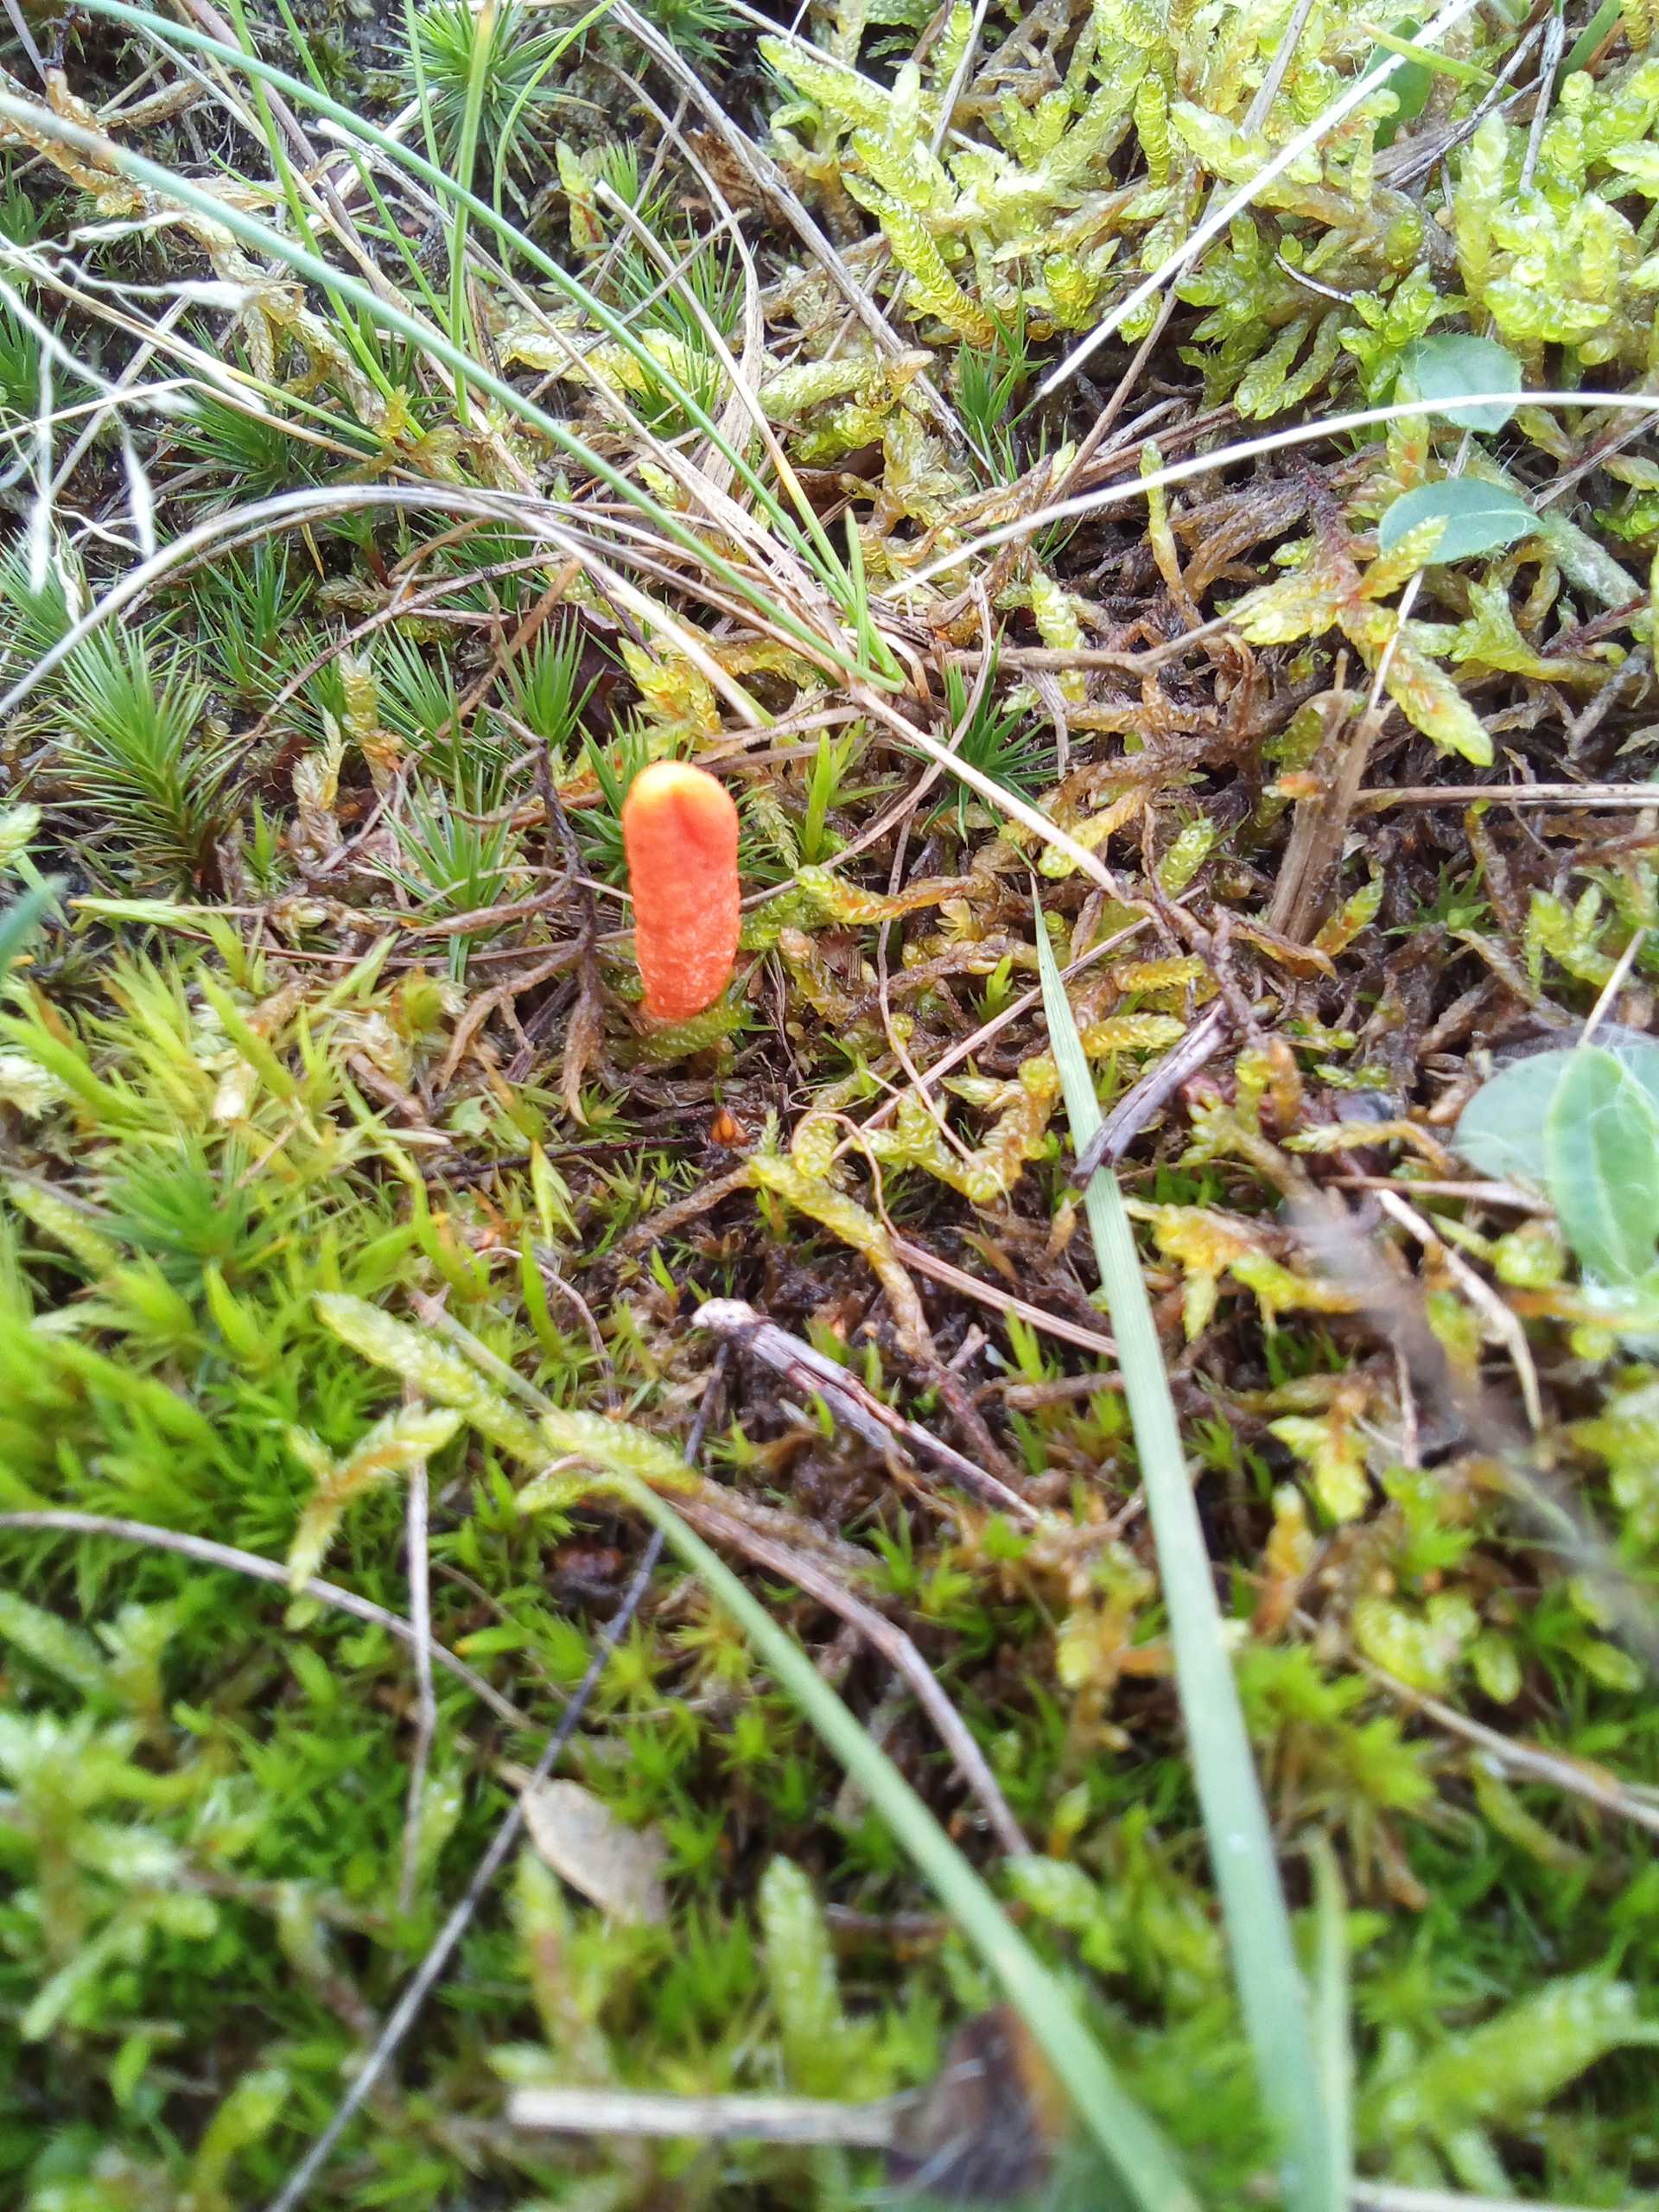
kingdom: Fungi
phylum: Ascomycota
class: Sordariomycetes
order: Hypocreales
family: Cordycipitaceae
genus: Cordyceps
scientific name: Cordyceps militaris
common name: puppe-snyltekølle
